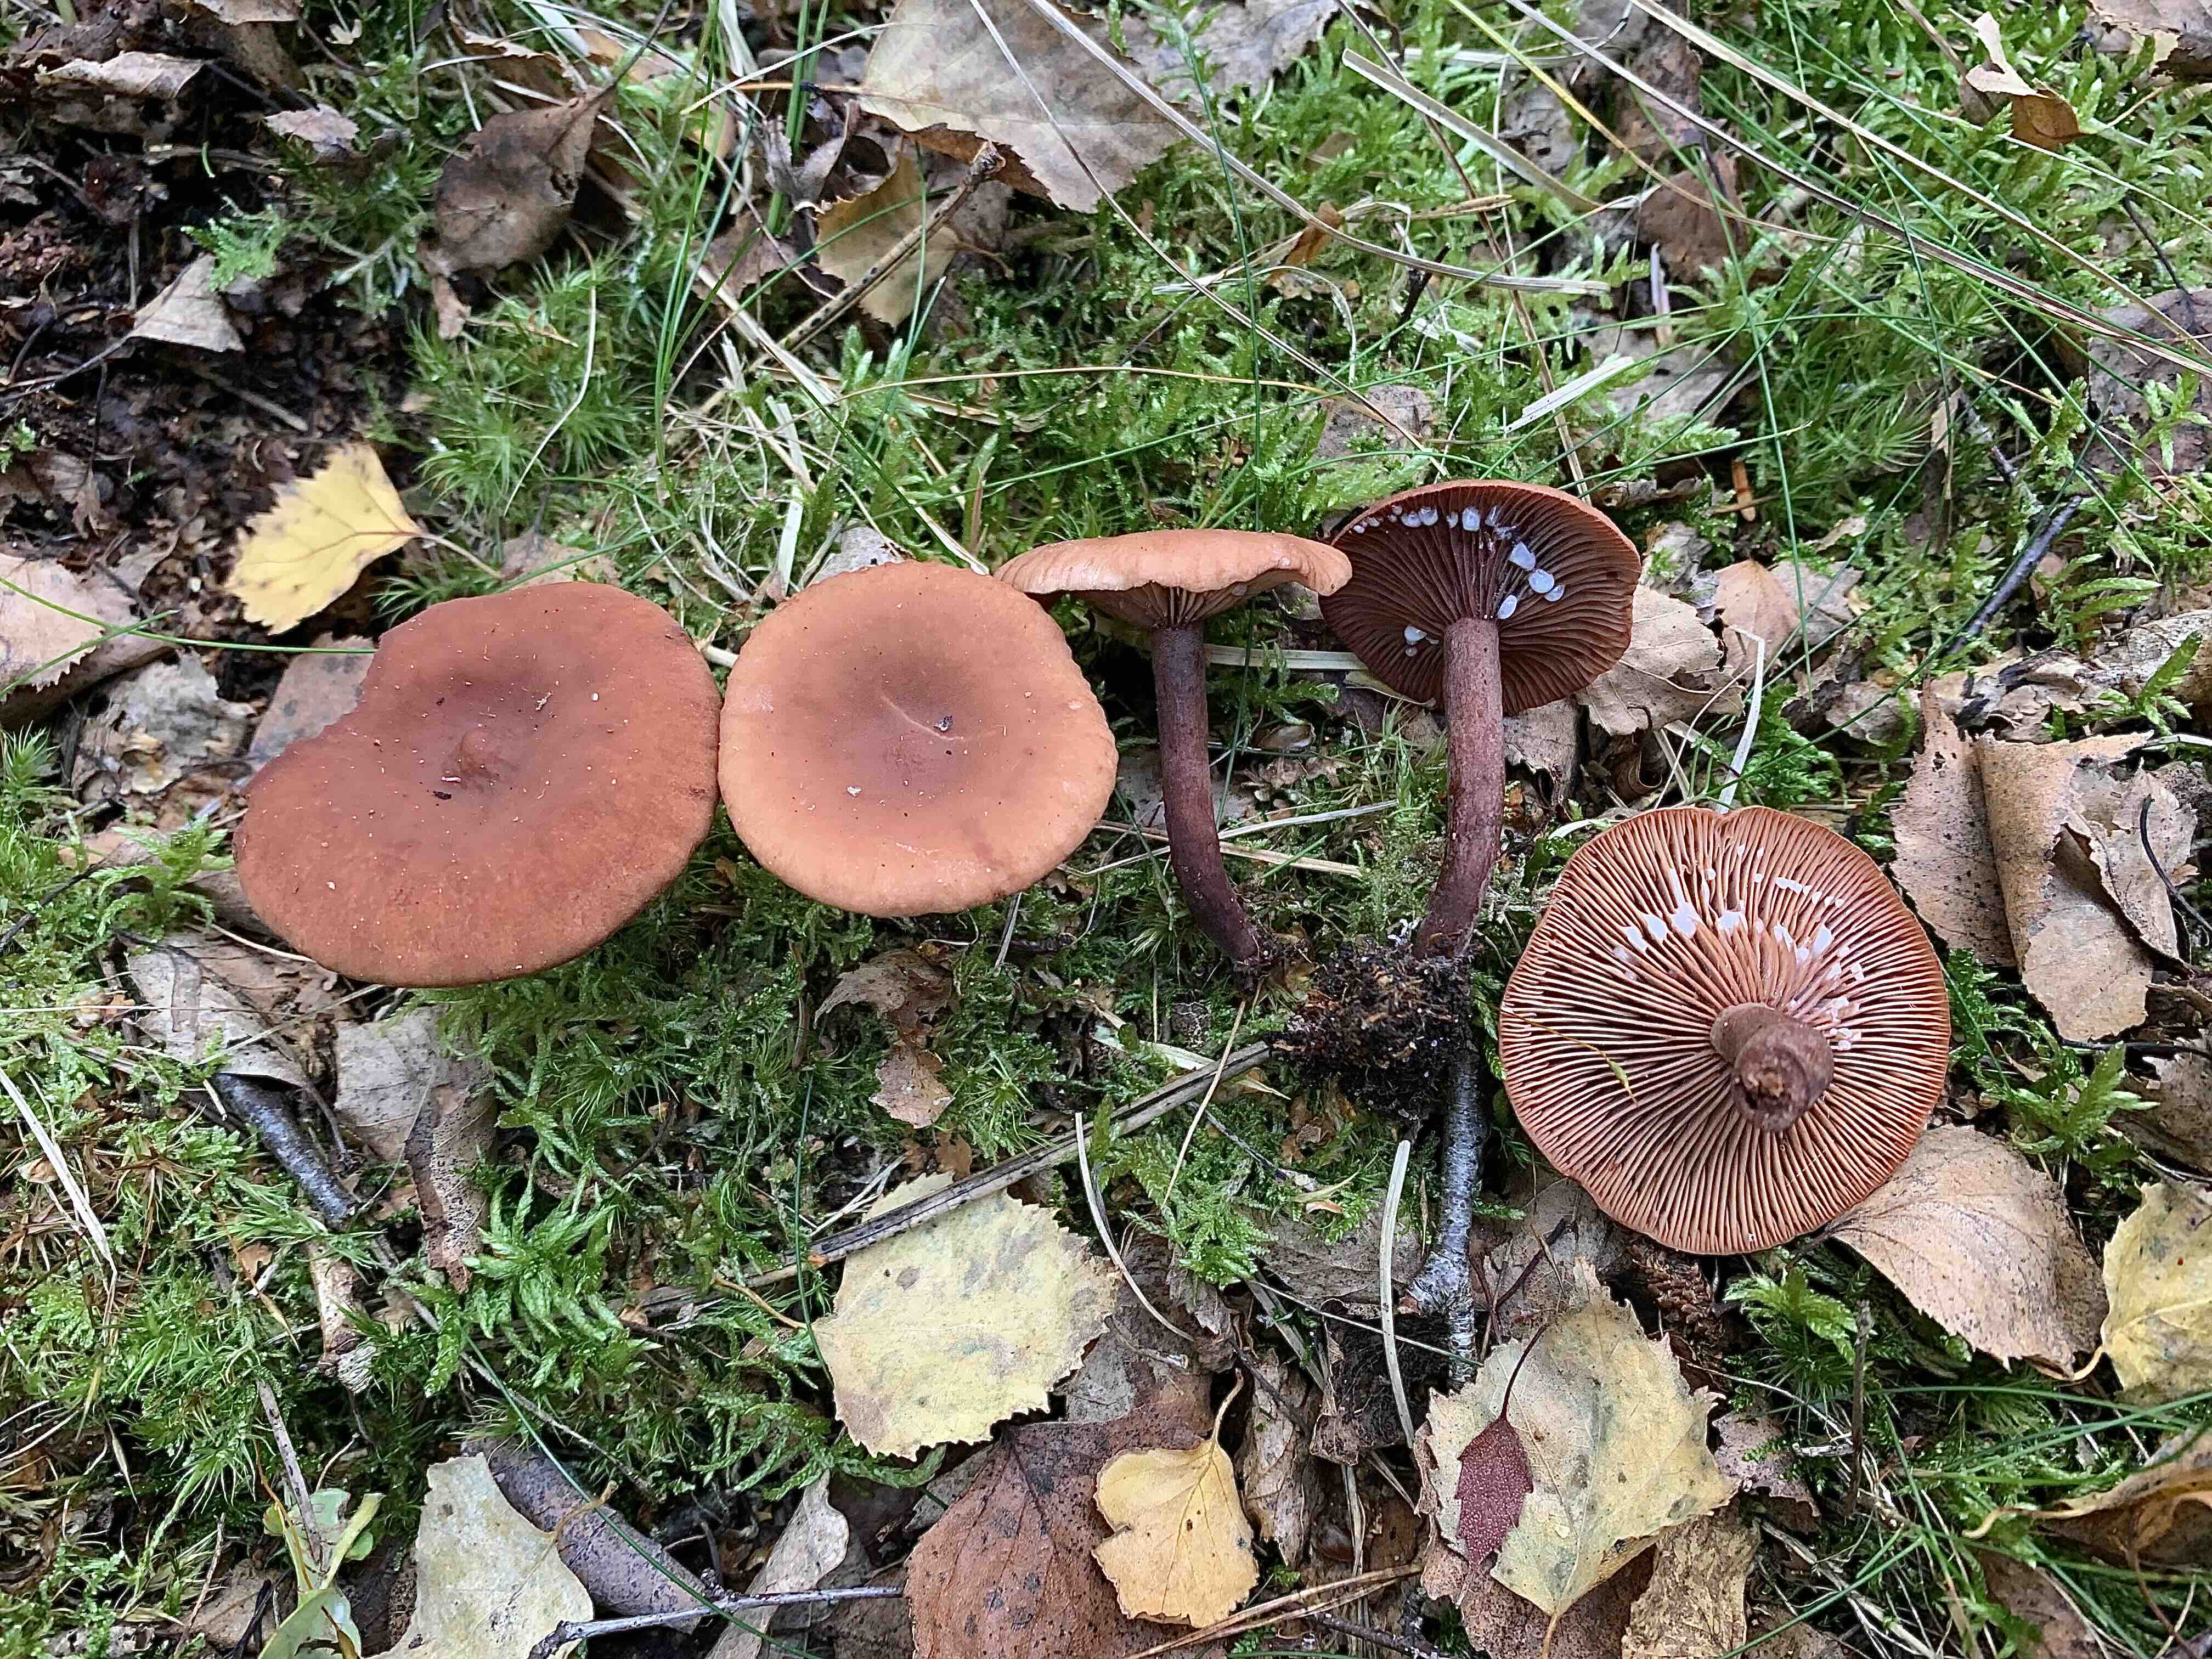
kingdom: Fungi
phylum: Basidiomycota
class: Agaricomycetes
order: Russulales
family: Russulaceae
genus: Lactarius
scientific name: Lactarius camphoratus
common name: kamfer-mælkehat
